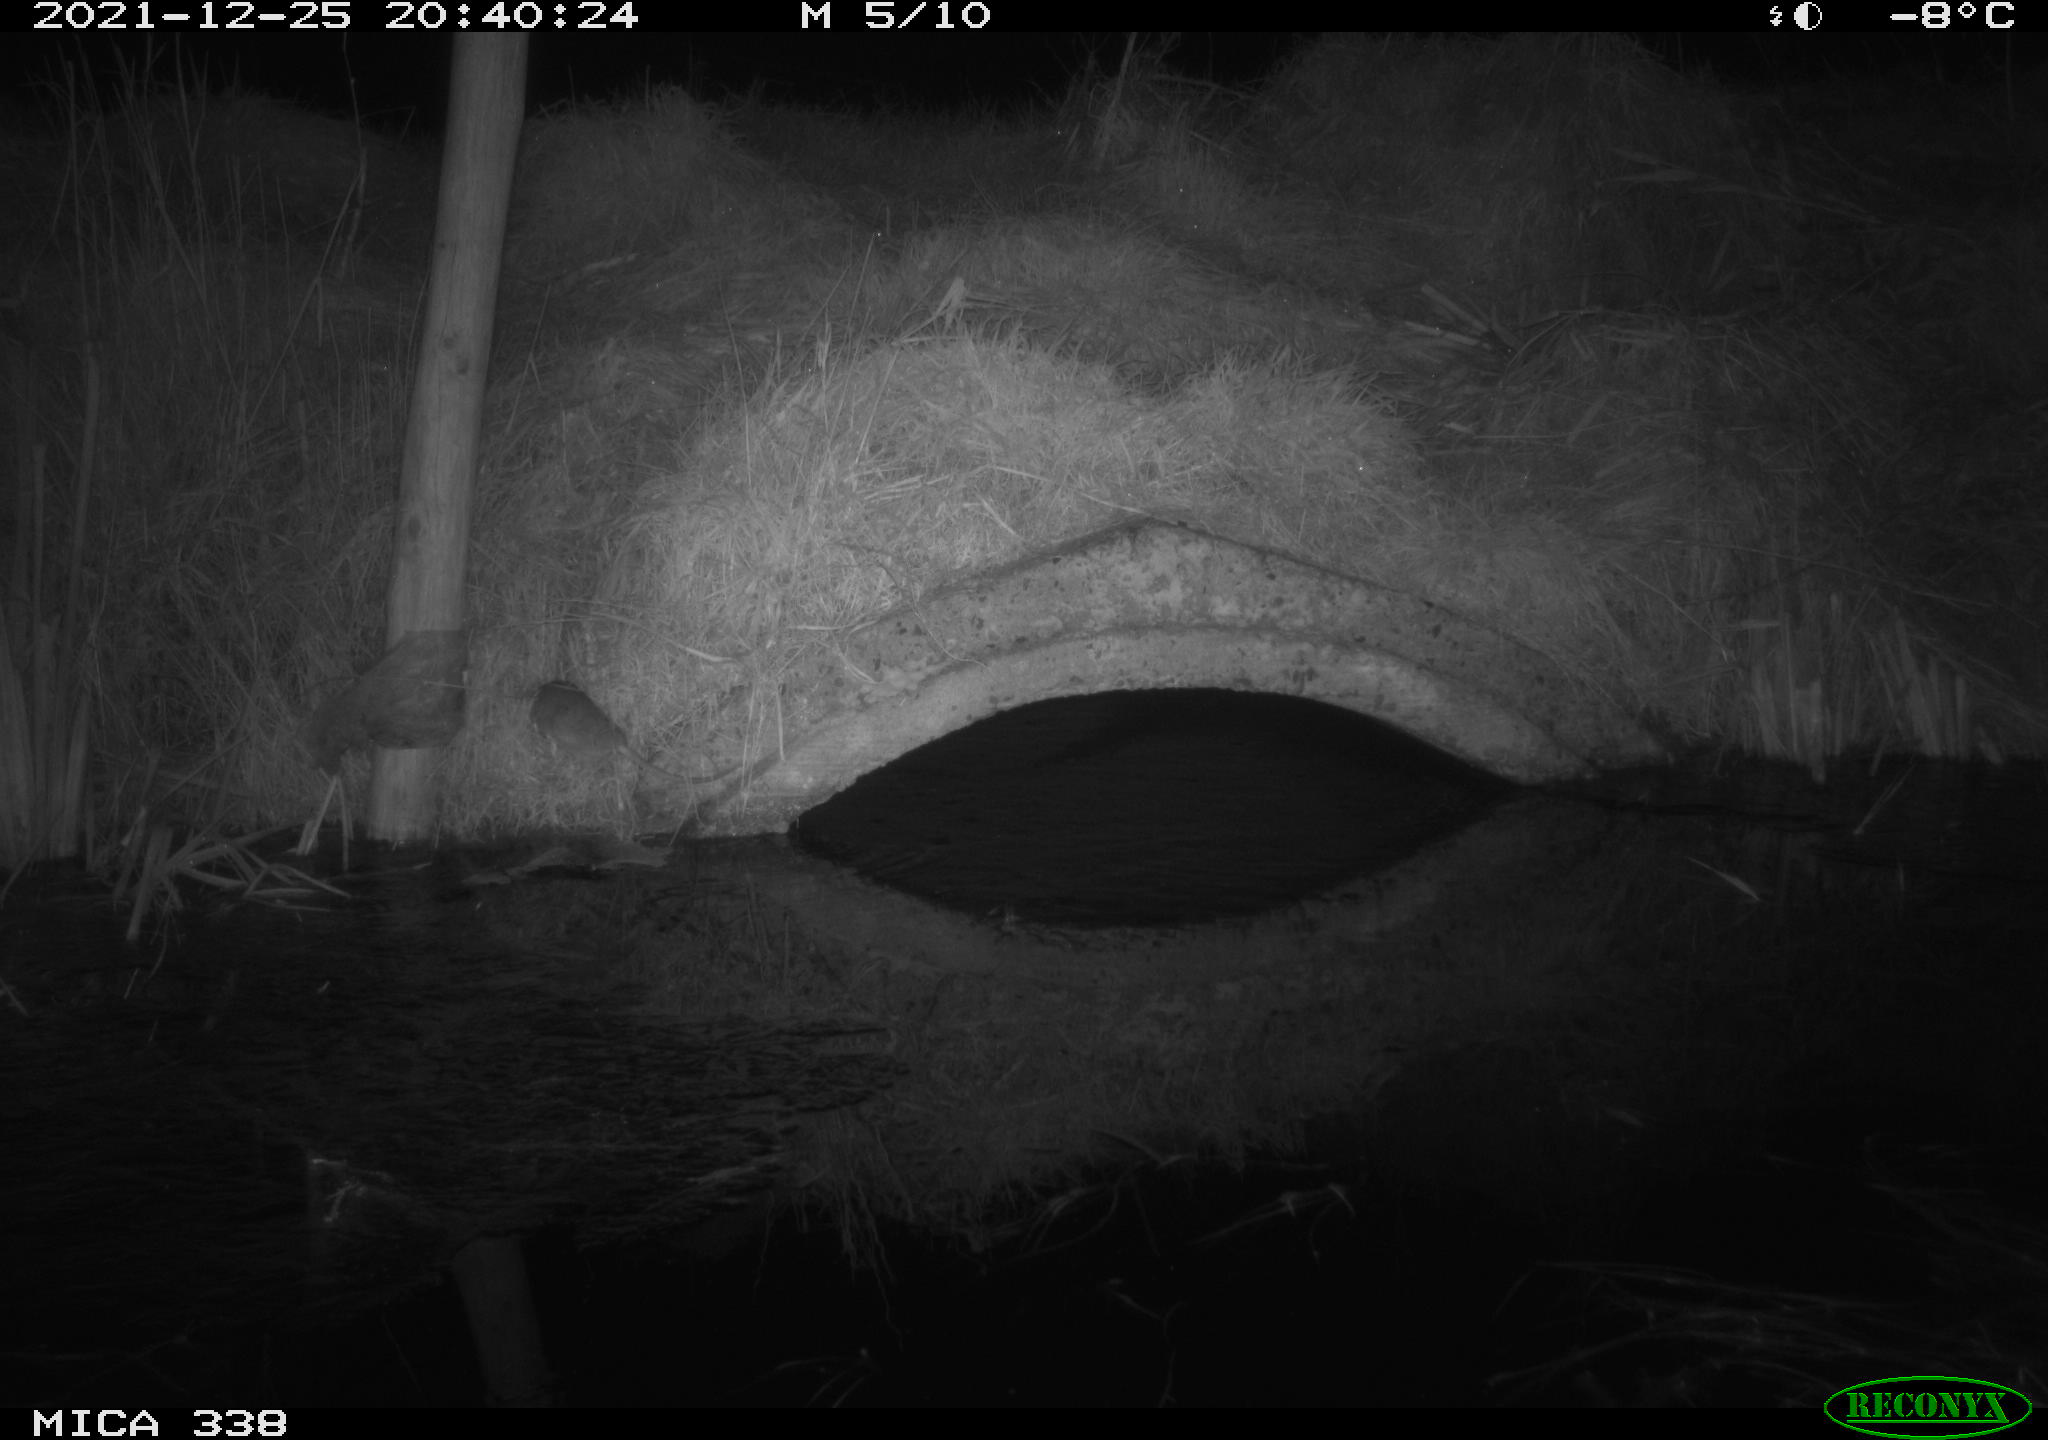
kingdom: Animalia
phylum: Chordata
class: Mammalia
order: Rodentia
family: Muridae
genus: Rattus
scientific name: Rattus norvegicus
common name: Brown rat
